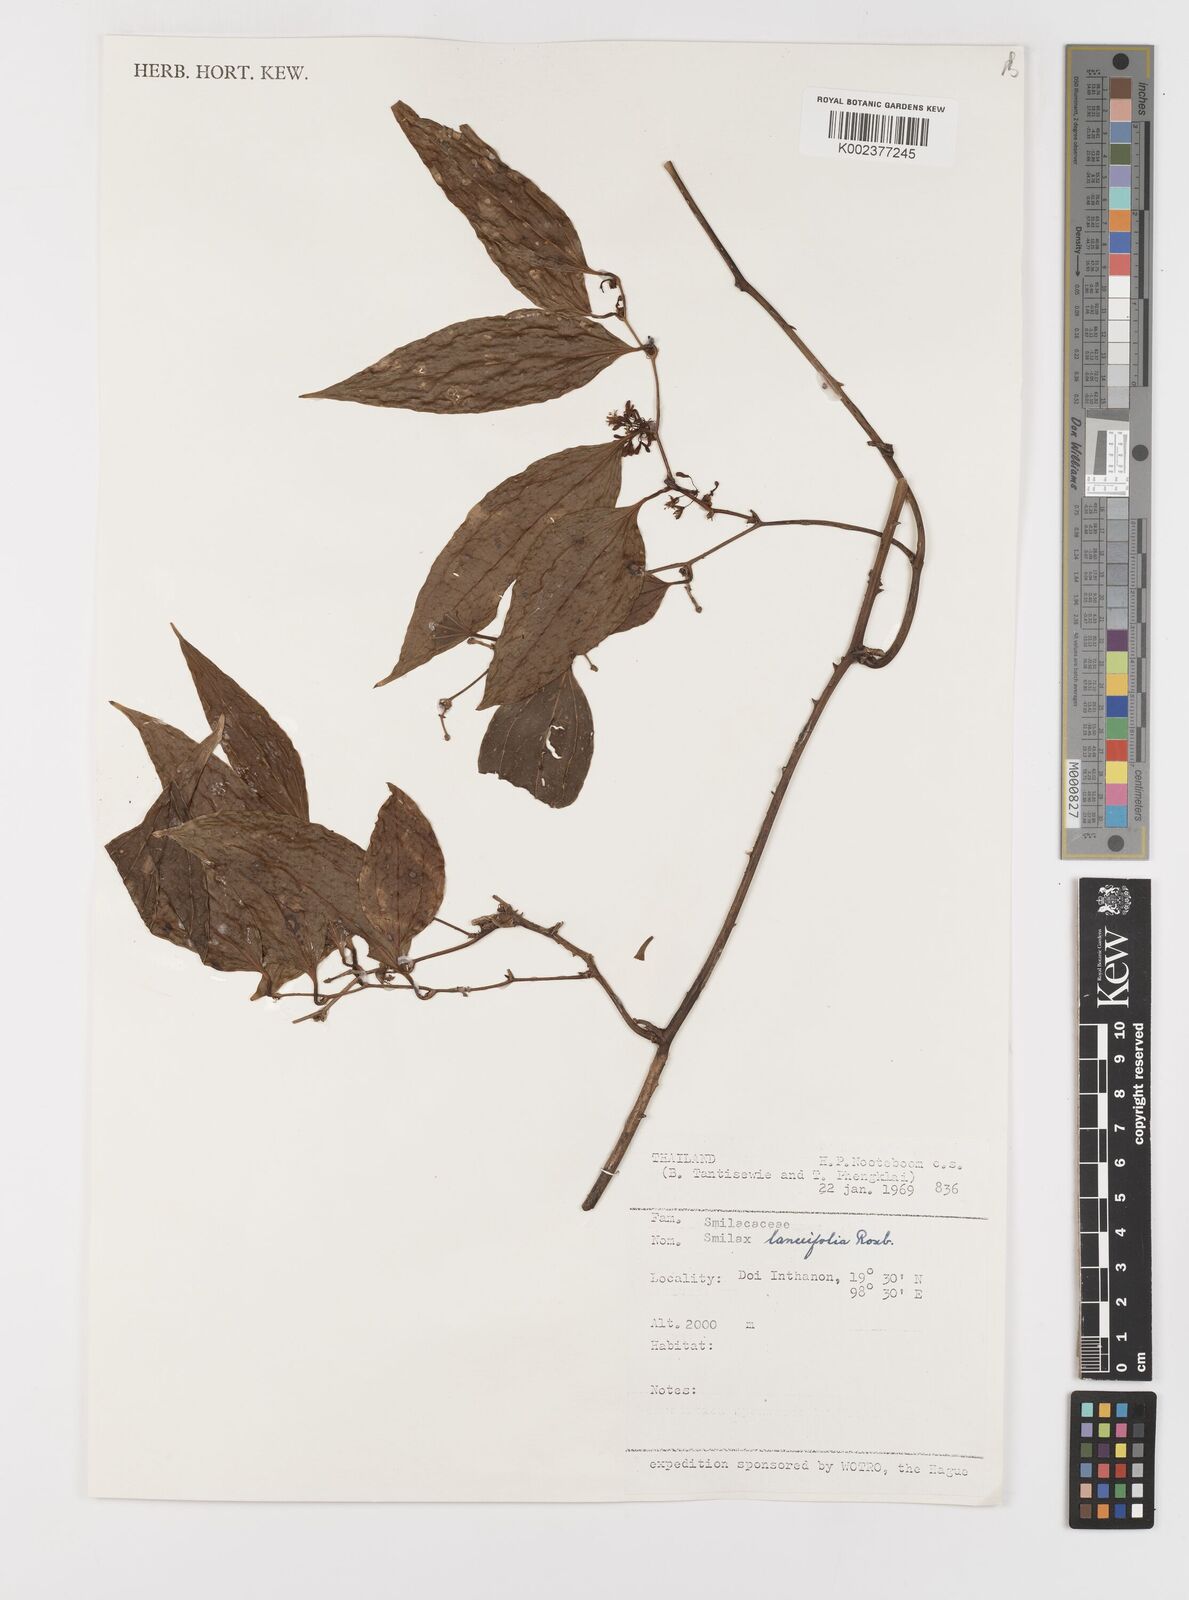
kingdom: Plantae
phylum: Tracheophyta
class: Liliopsida
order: Liliales
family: Smilacaceae
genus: Smilax
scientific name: Smilax lanceifolia
